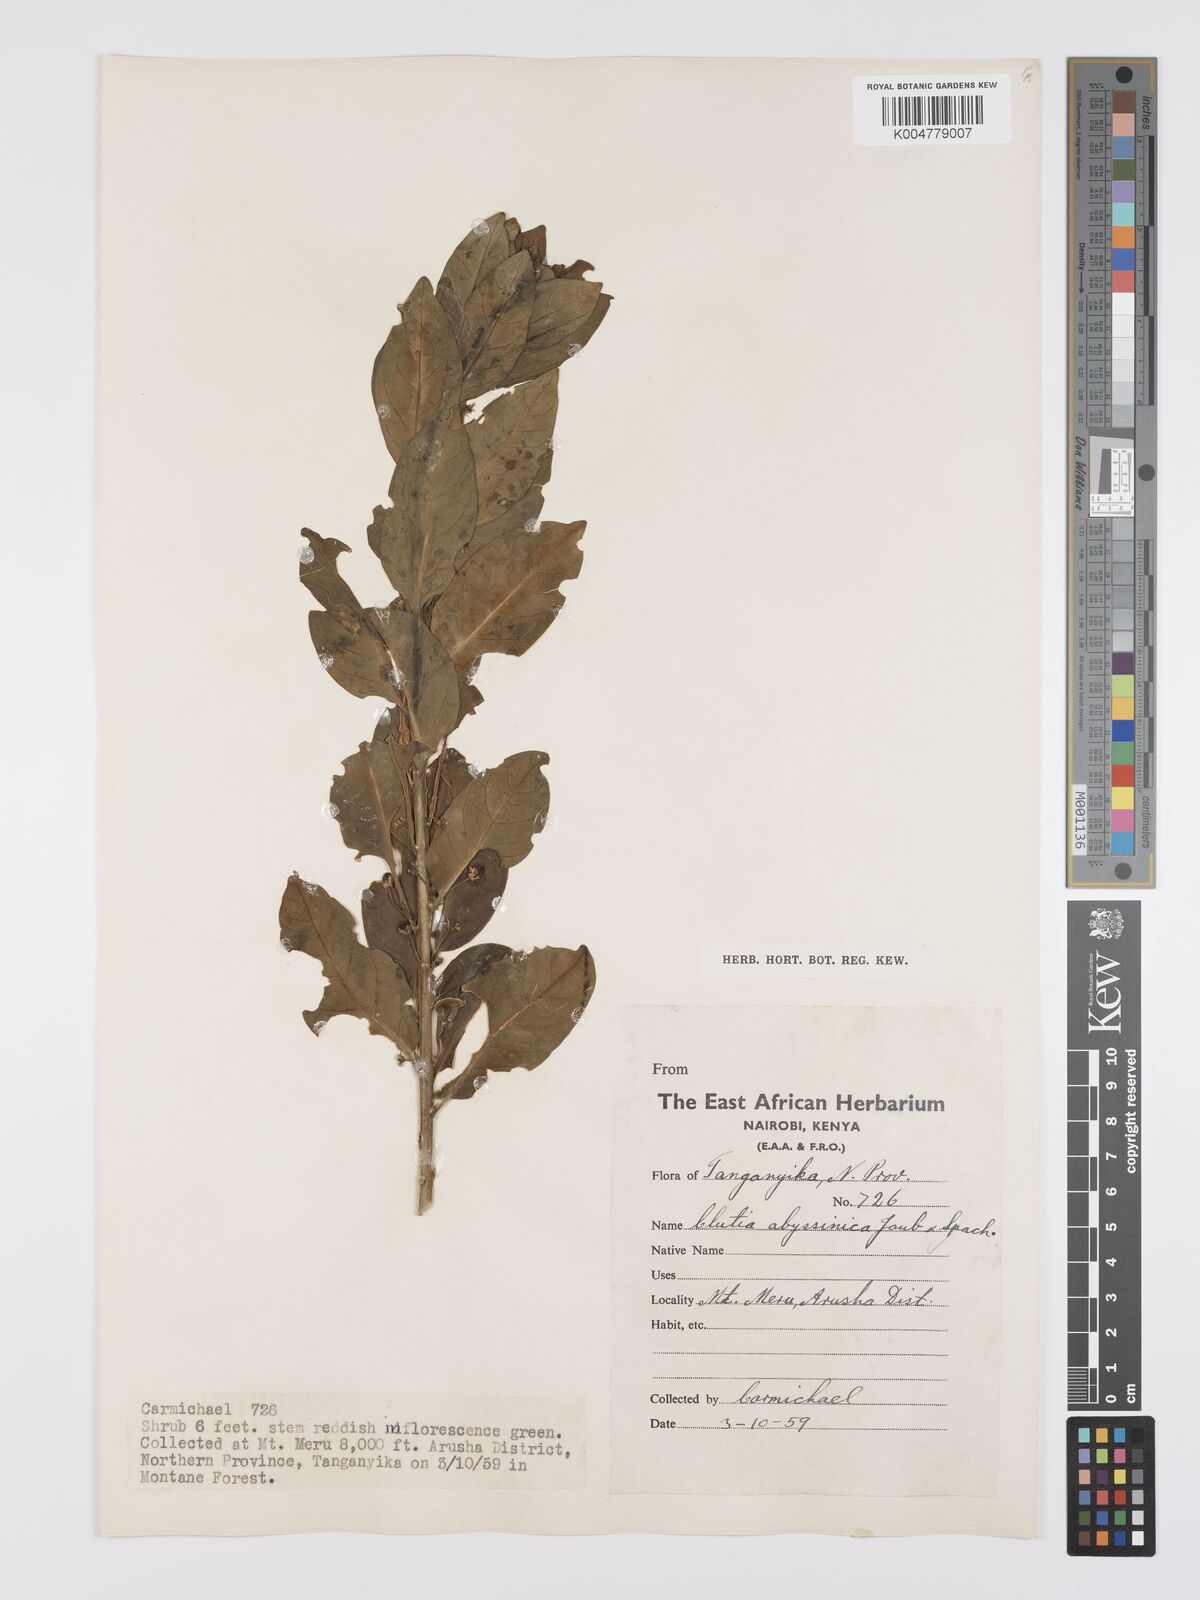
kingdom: Plantae
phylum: Tracheophyta
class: Magnoliopsida
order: Malpighiales
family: Peraceae
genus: Clutia
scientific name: Clutia abyssinica
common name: Large lightning bush
